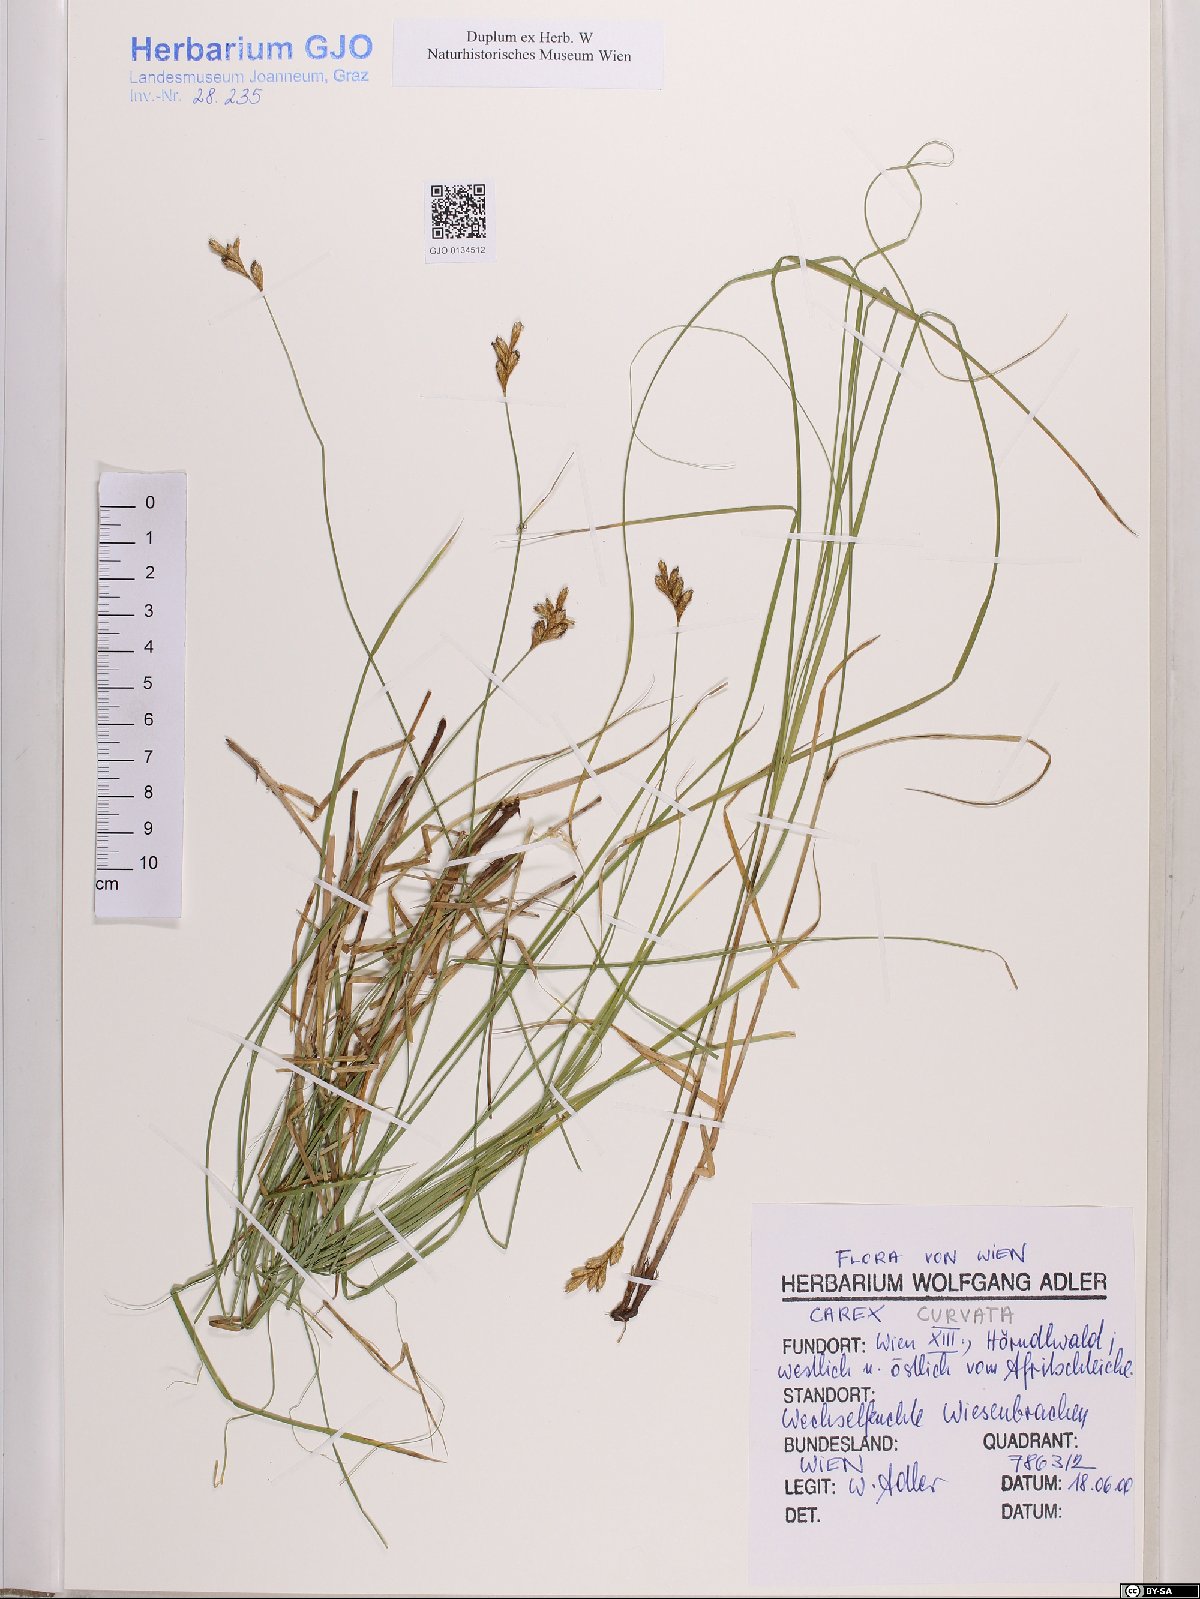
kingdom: Plantae
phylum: Tracheophyta
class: Liliopsida
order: Poales
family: Cyperaceae
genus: Carex
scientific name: Carex curvata
